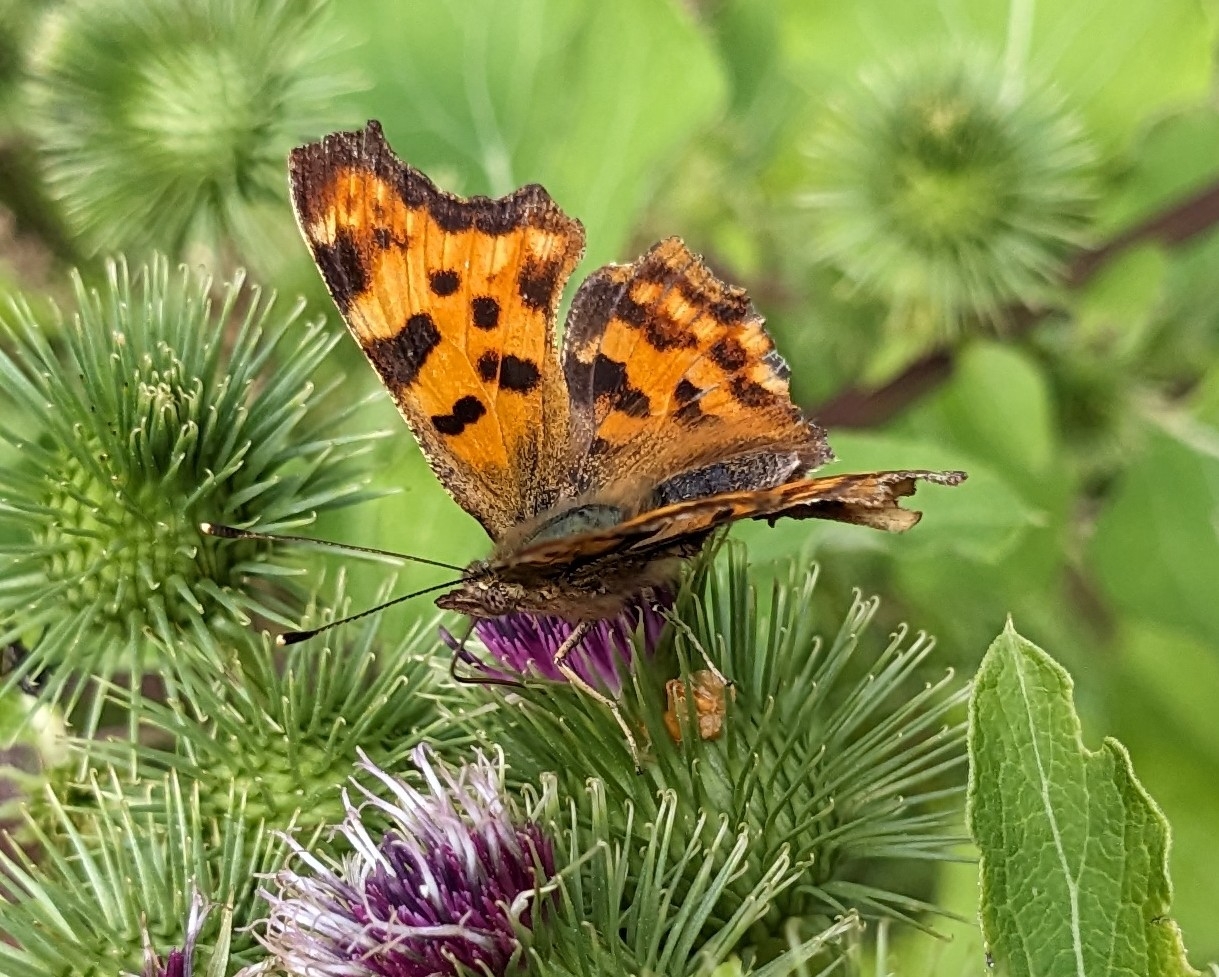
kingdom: Animalia
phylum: Arthropoda
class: Insecta
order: Lepidoptera
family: Nymphalidae
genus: Polygonia
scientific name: Polygonia c-album
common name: Det hvide C
